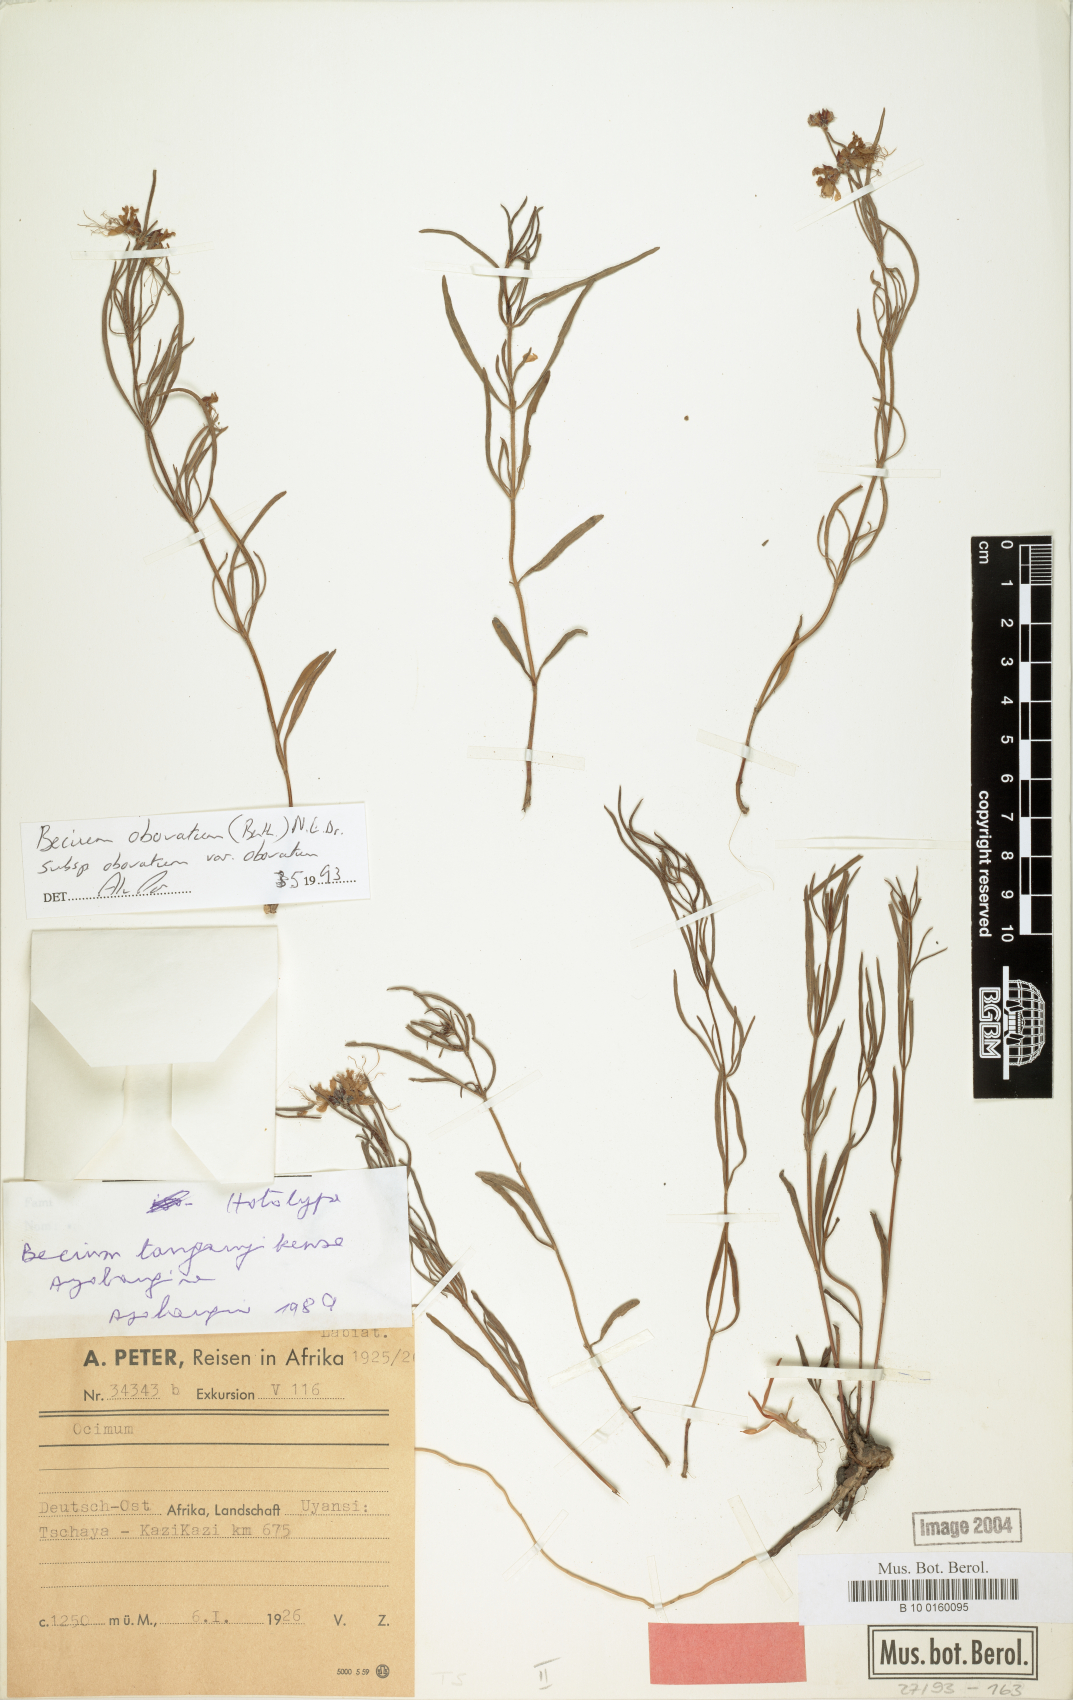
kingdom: Plantae
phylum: Tracheophyta
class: Magnoliopsida
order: Lamiales
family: Lamiaceae
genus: Ocimum
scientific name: Ocimum obovatum
